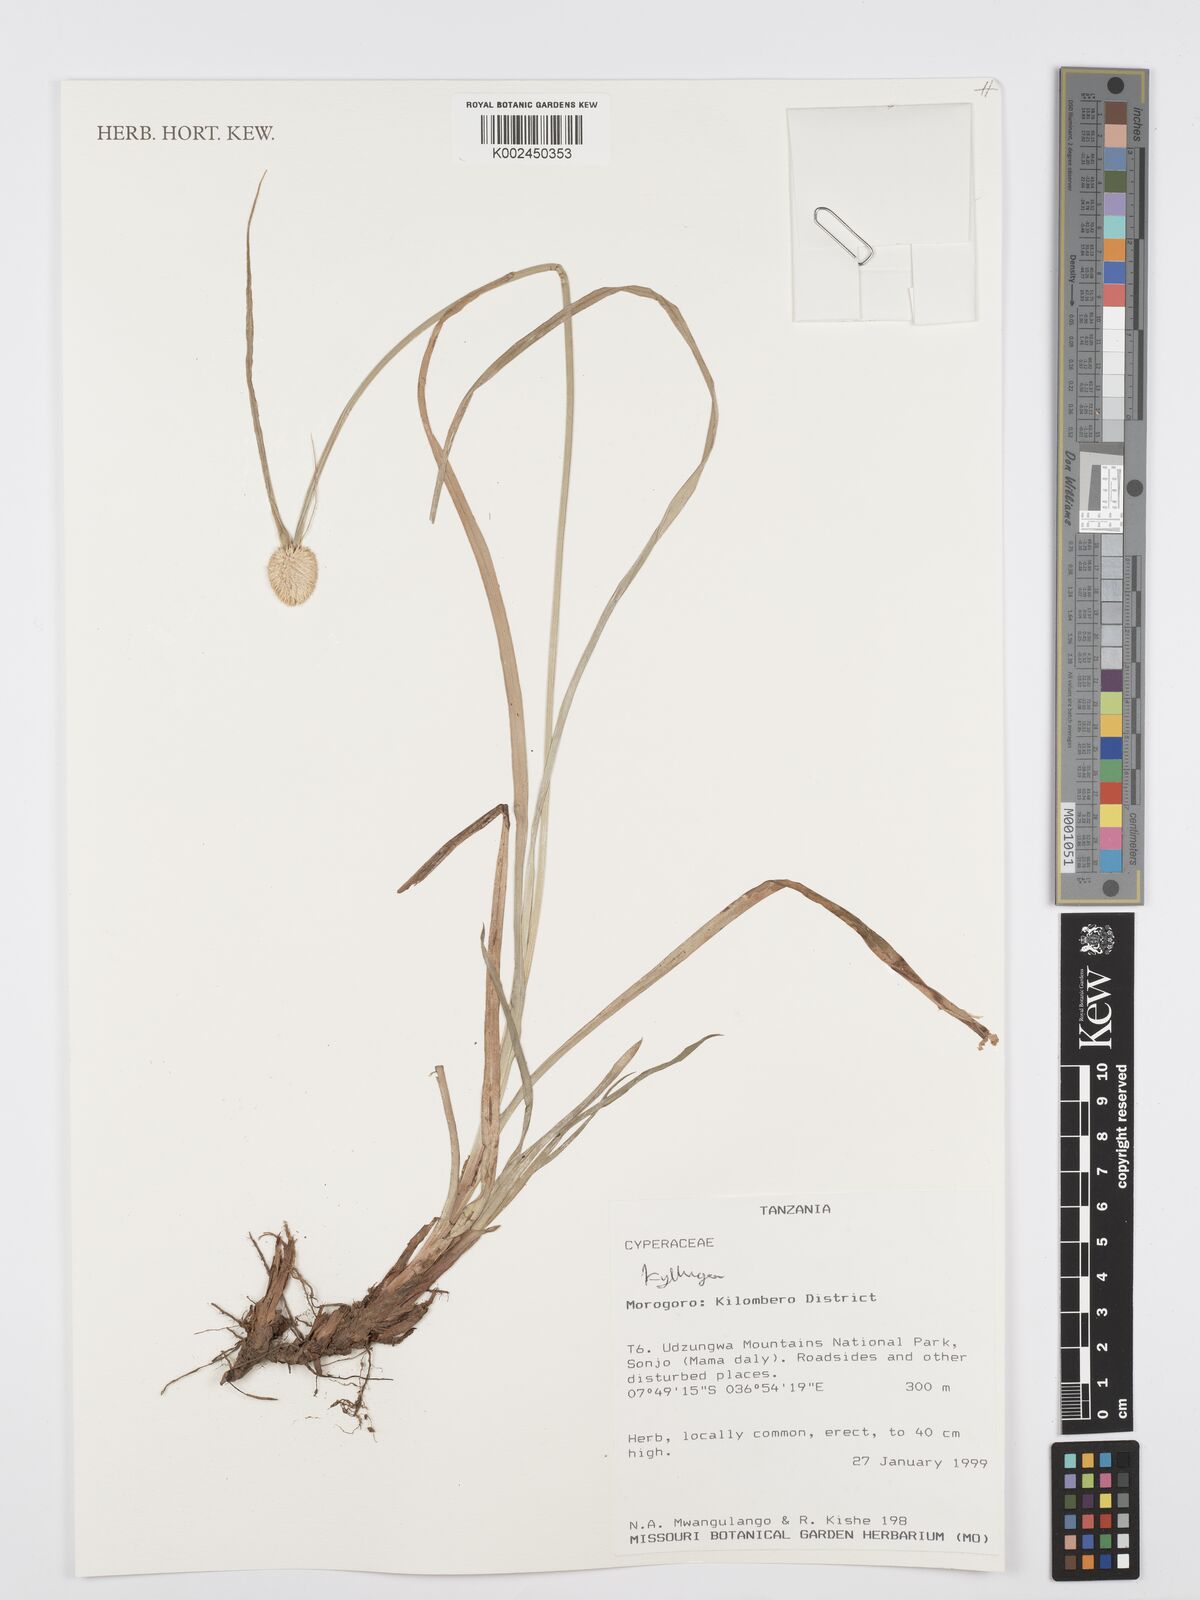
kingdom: Plantae
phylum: Tracheophyta
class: Liliopsida
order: Poales
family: Cyperaceae
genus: Cyperus
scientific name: Cyperus
